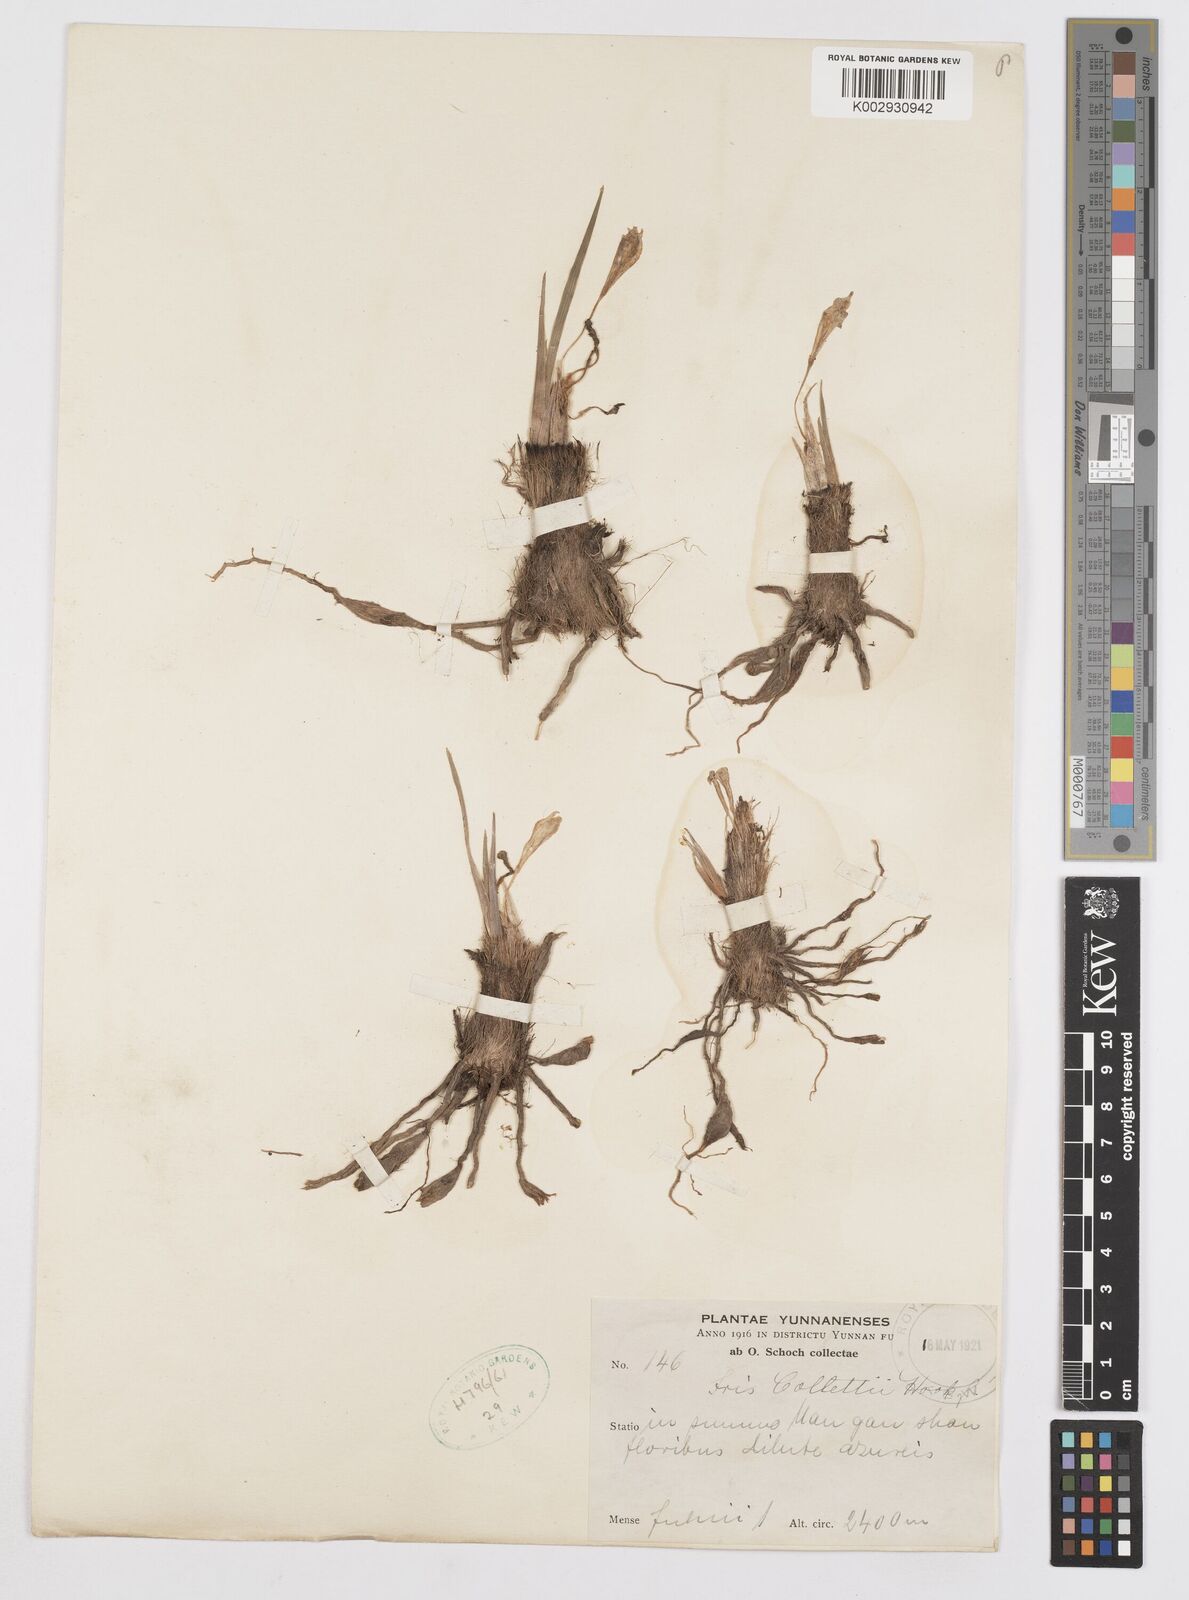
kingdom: Plantae
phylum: Tracheophyta
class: Liliopsida
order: Asparagales
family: Iridaceae
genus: Iris
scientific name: Iris collettii
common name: Plateau iris
